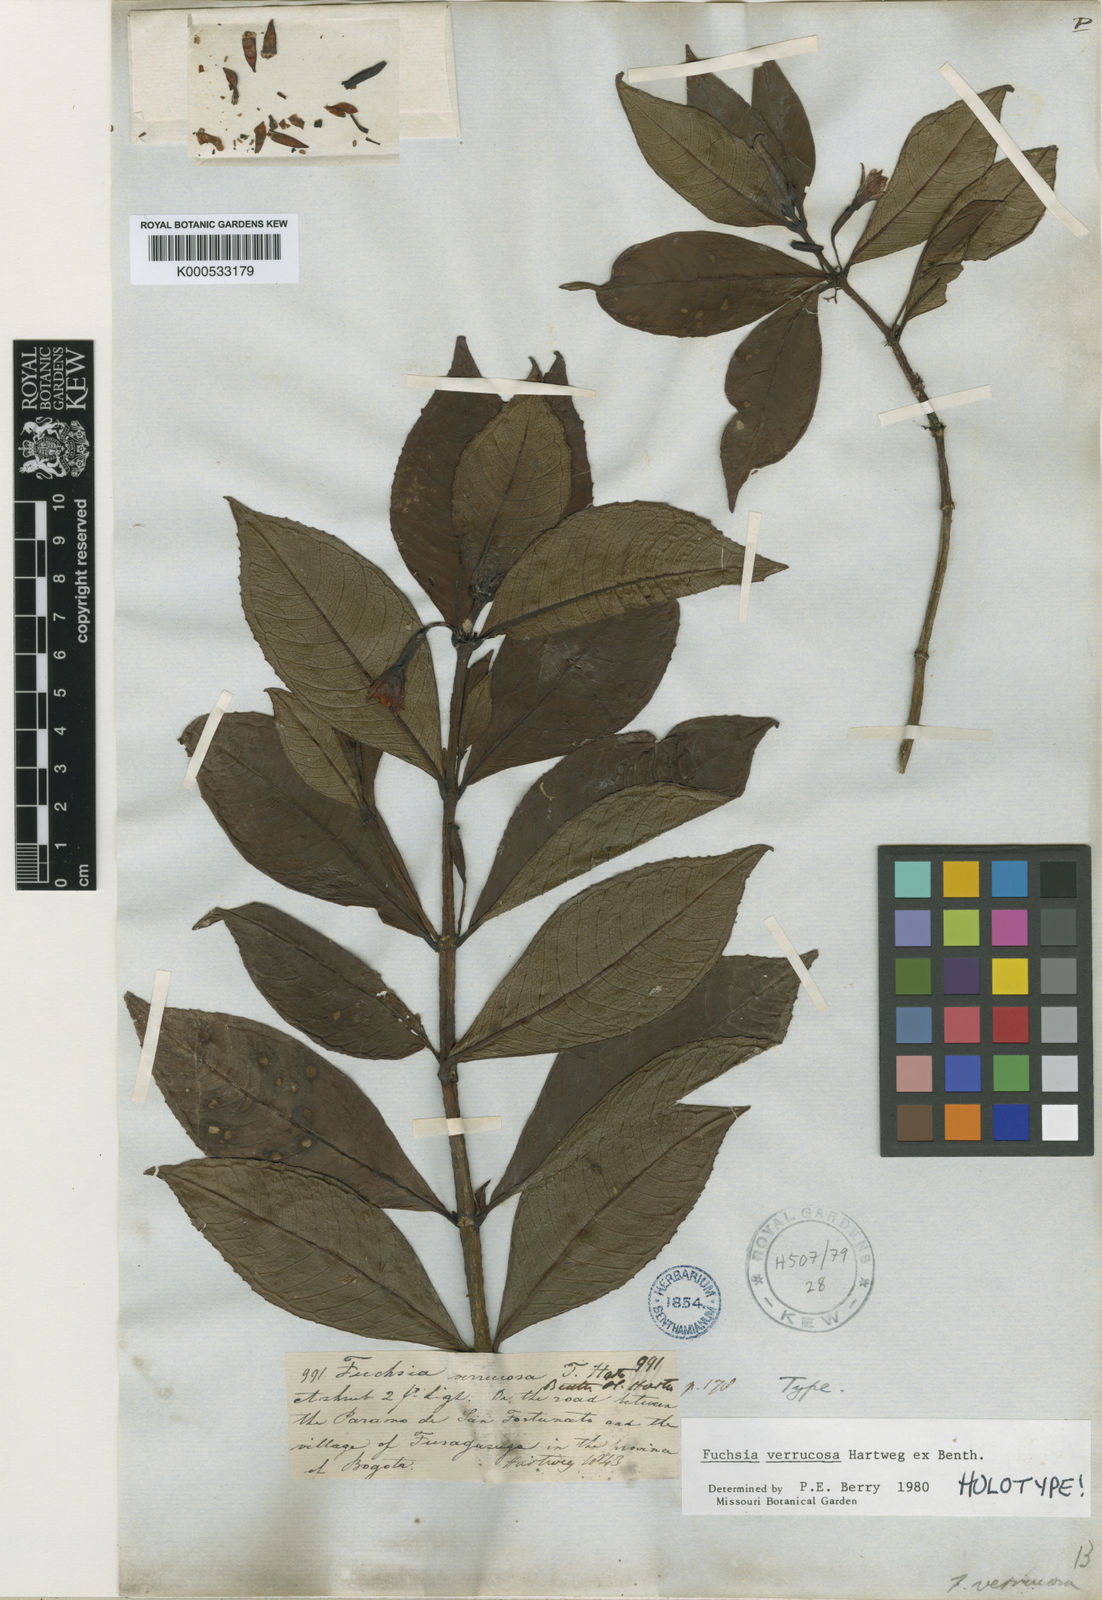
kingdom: Plantae
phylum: Tracheophyta
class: Magnoliopsida
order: Myrtales
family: Onagraceae
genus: Fuchsia
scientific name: Fuchsia verrucosa
